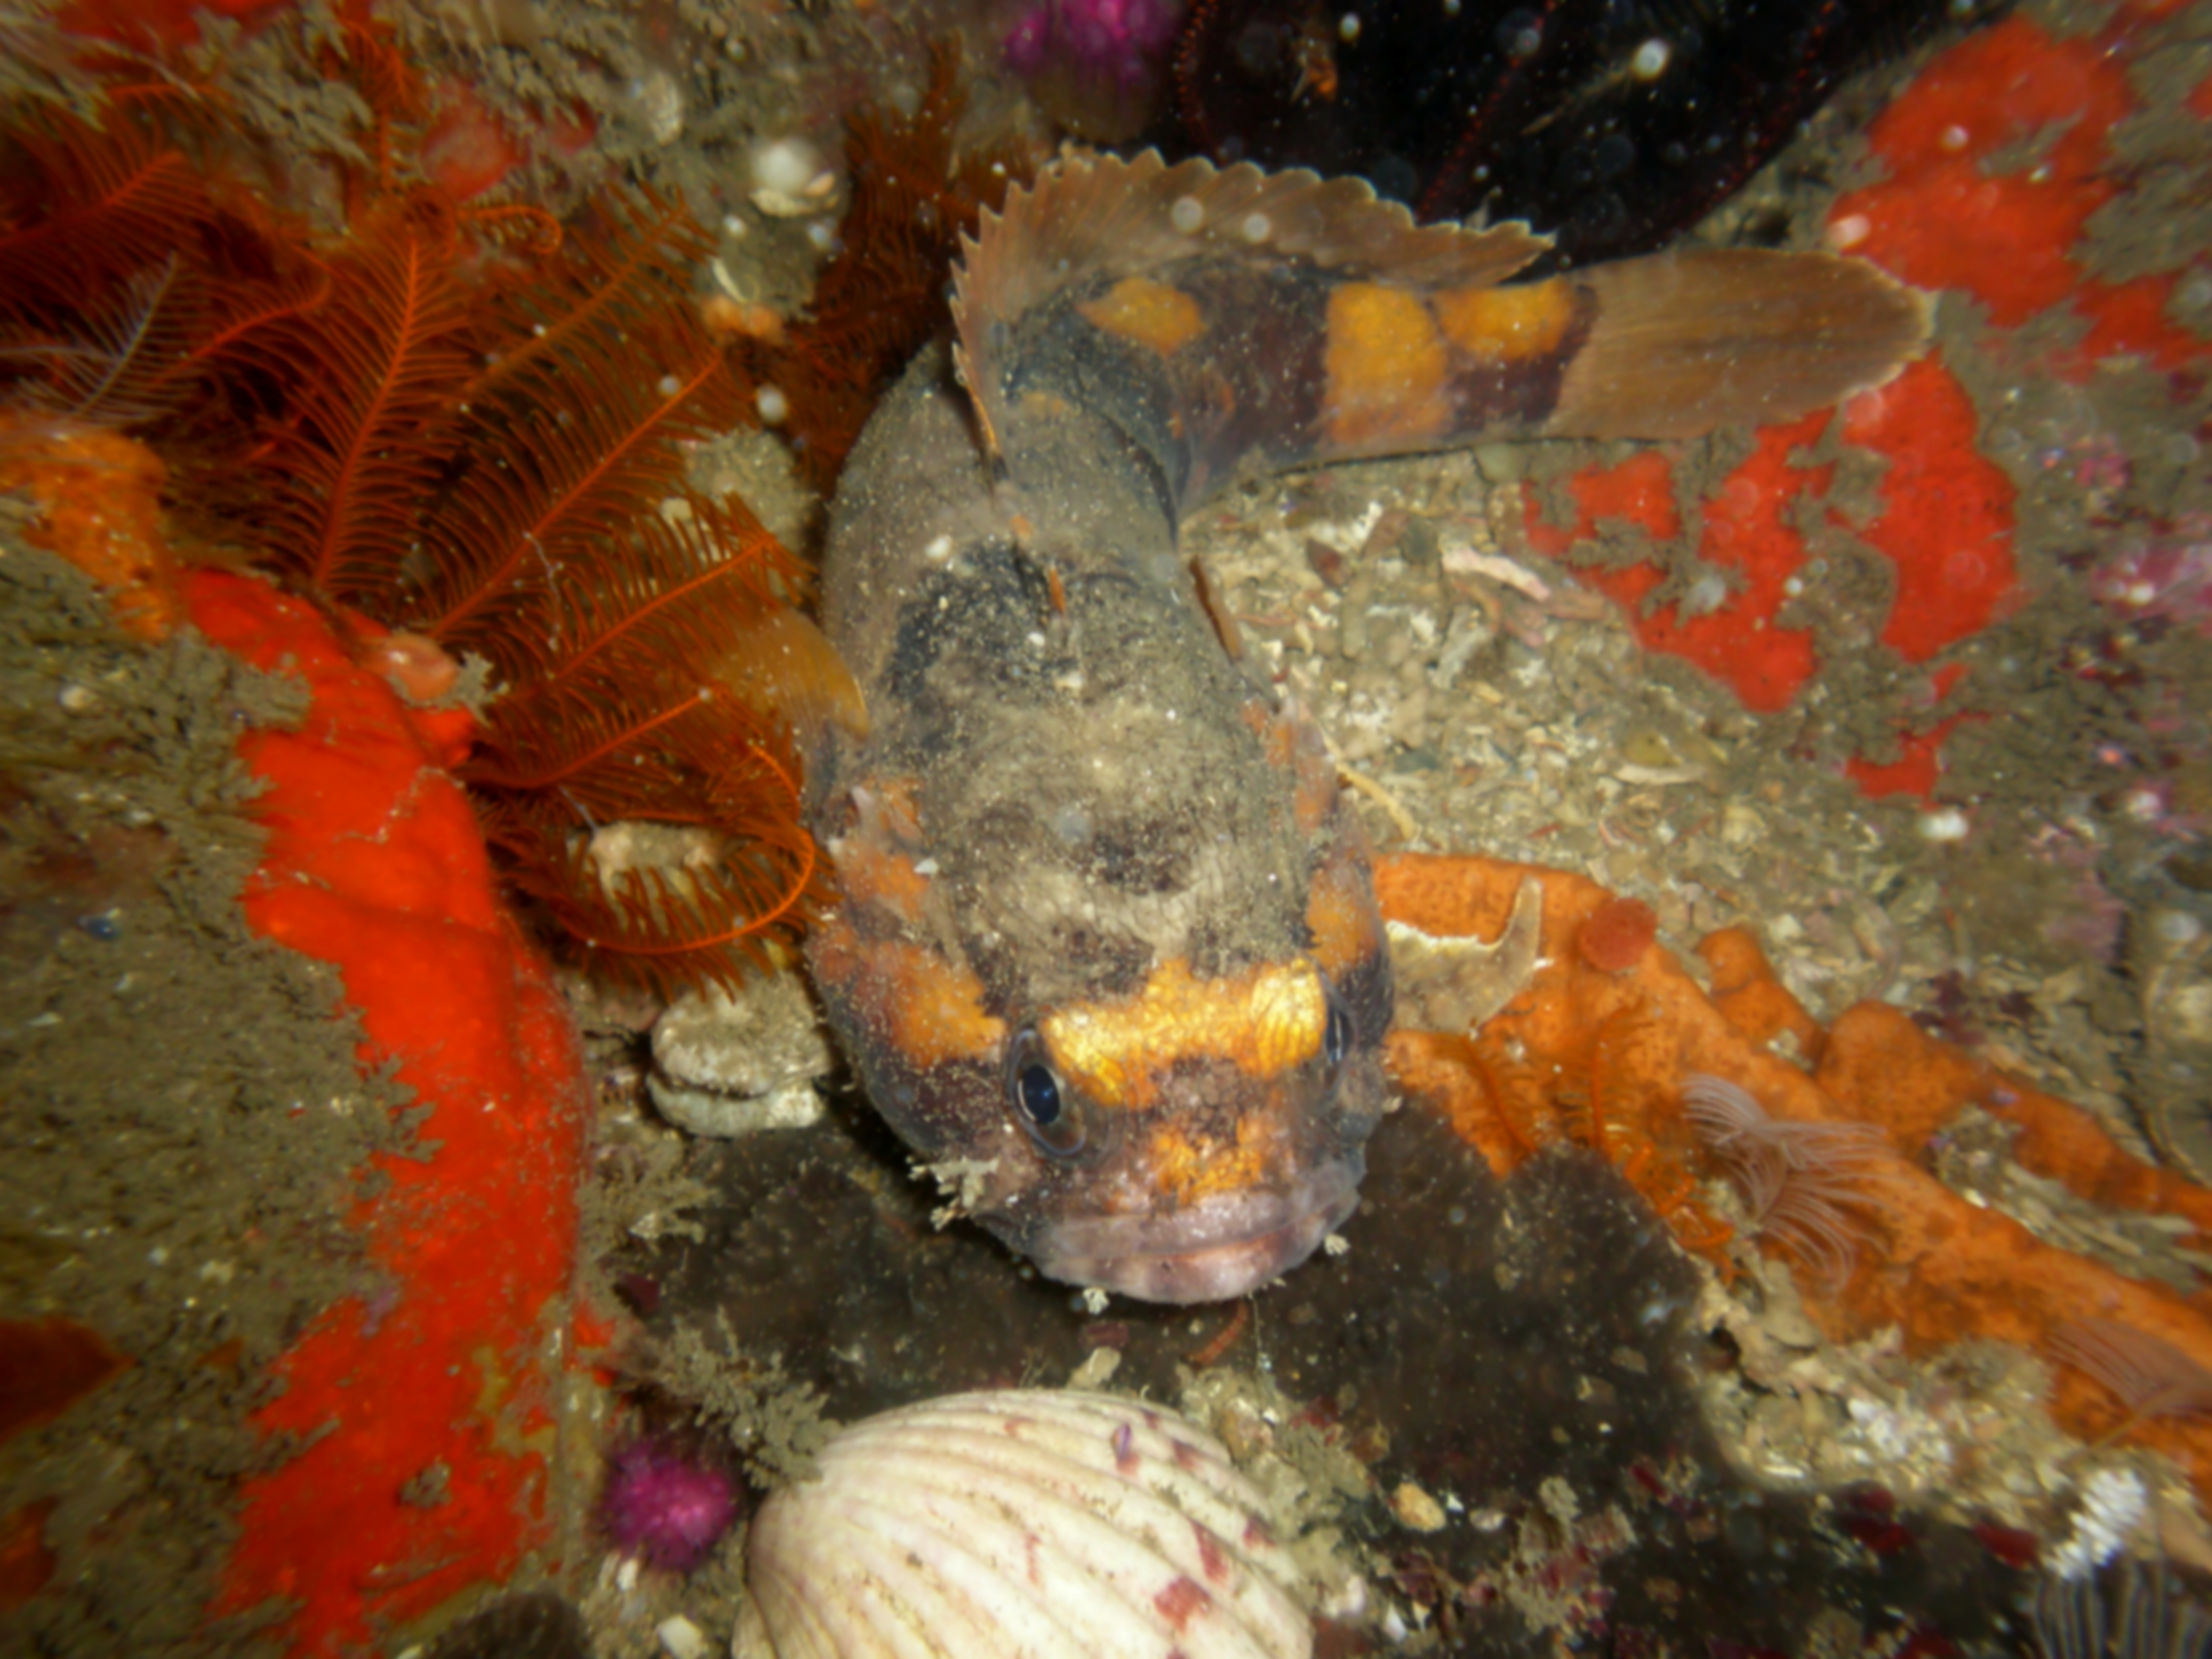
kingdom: Animalia
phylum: Chordata
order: Batrachoidiformes
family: Batrachoididae
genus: Austrobatrachus
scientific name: Austrobatrachus foedus
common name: Puzzled toadfish
